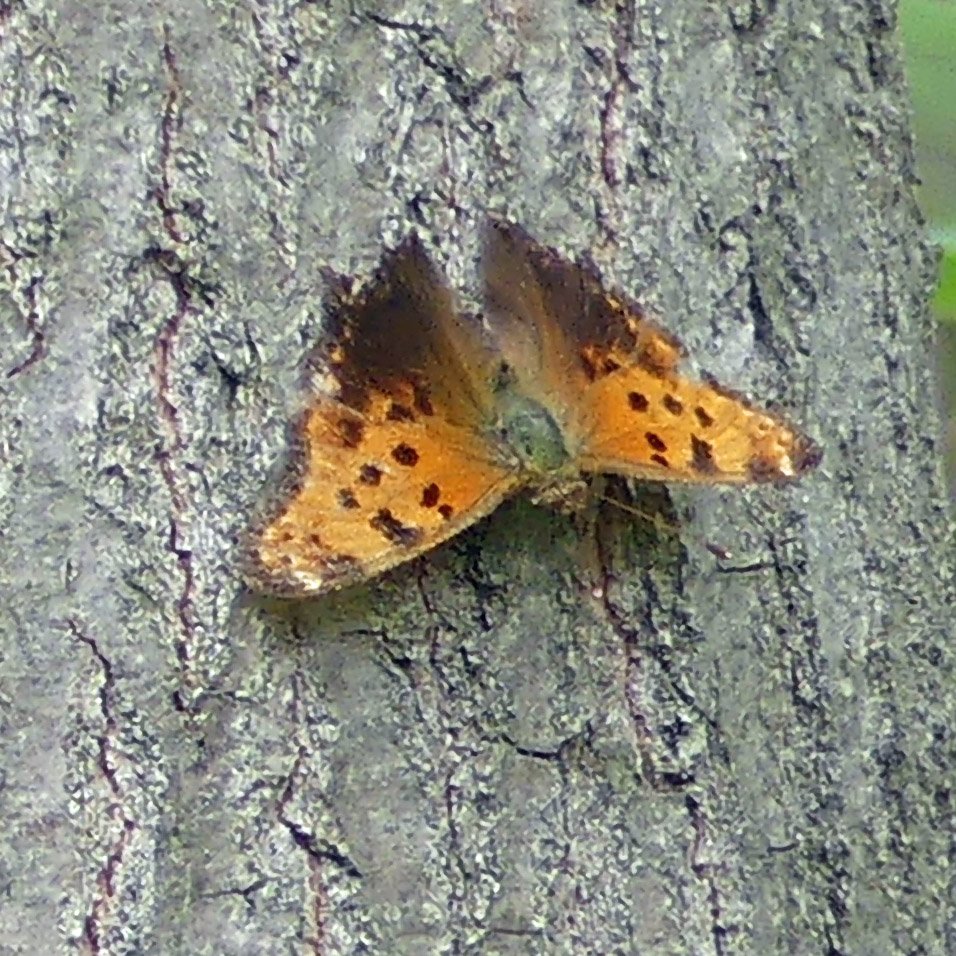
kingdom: Animalia
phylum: Arthropoda
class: Insecta
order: Lepidoptera
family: Nymphalidae
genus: Polygonia
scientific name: Polygonia comma
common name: Eastern Comma
